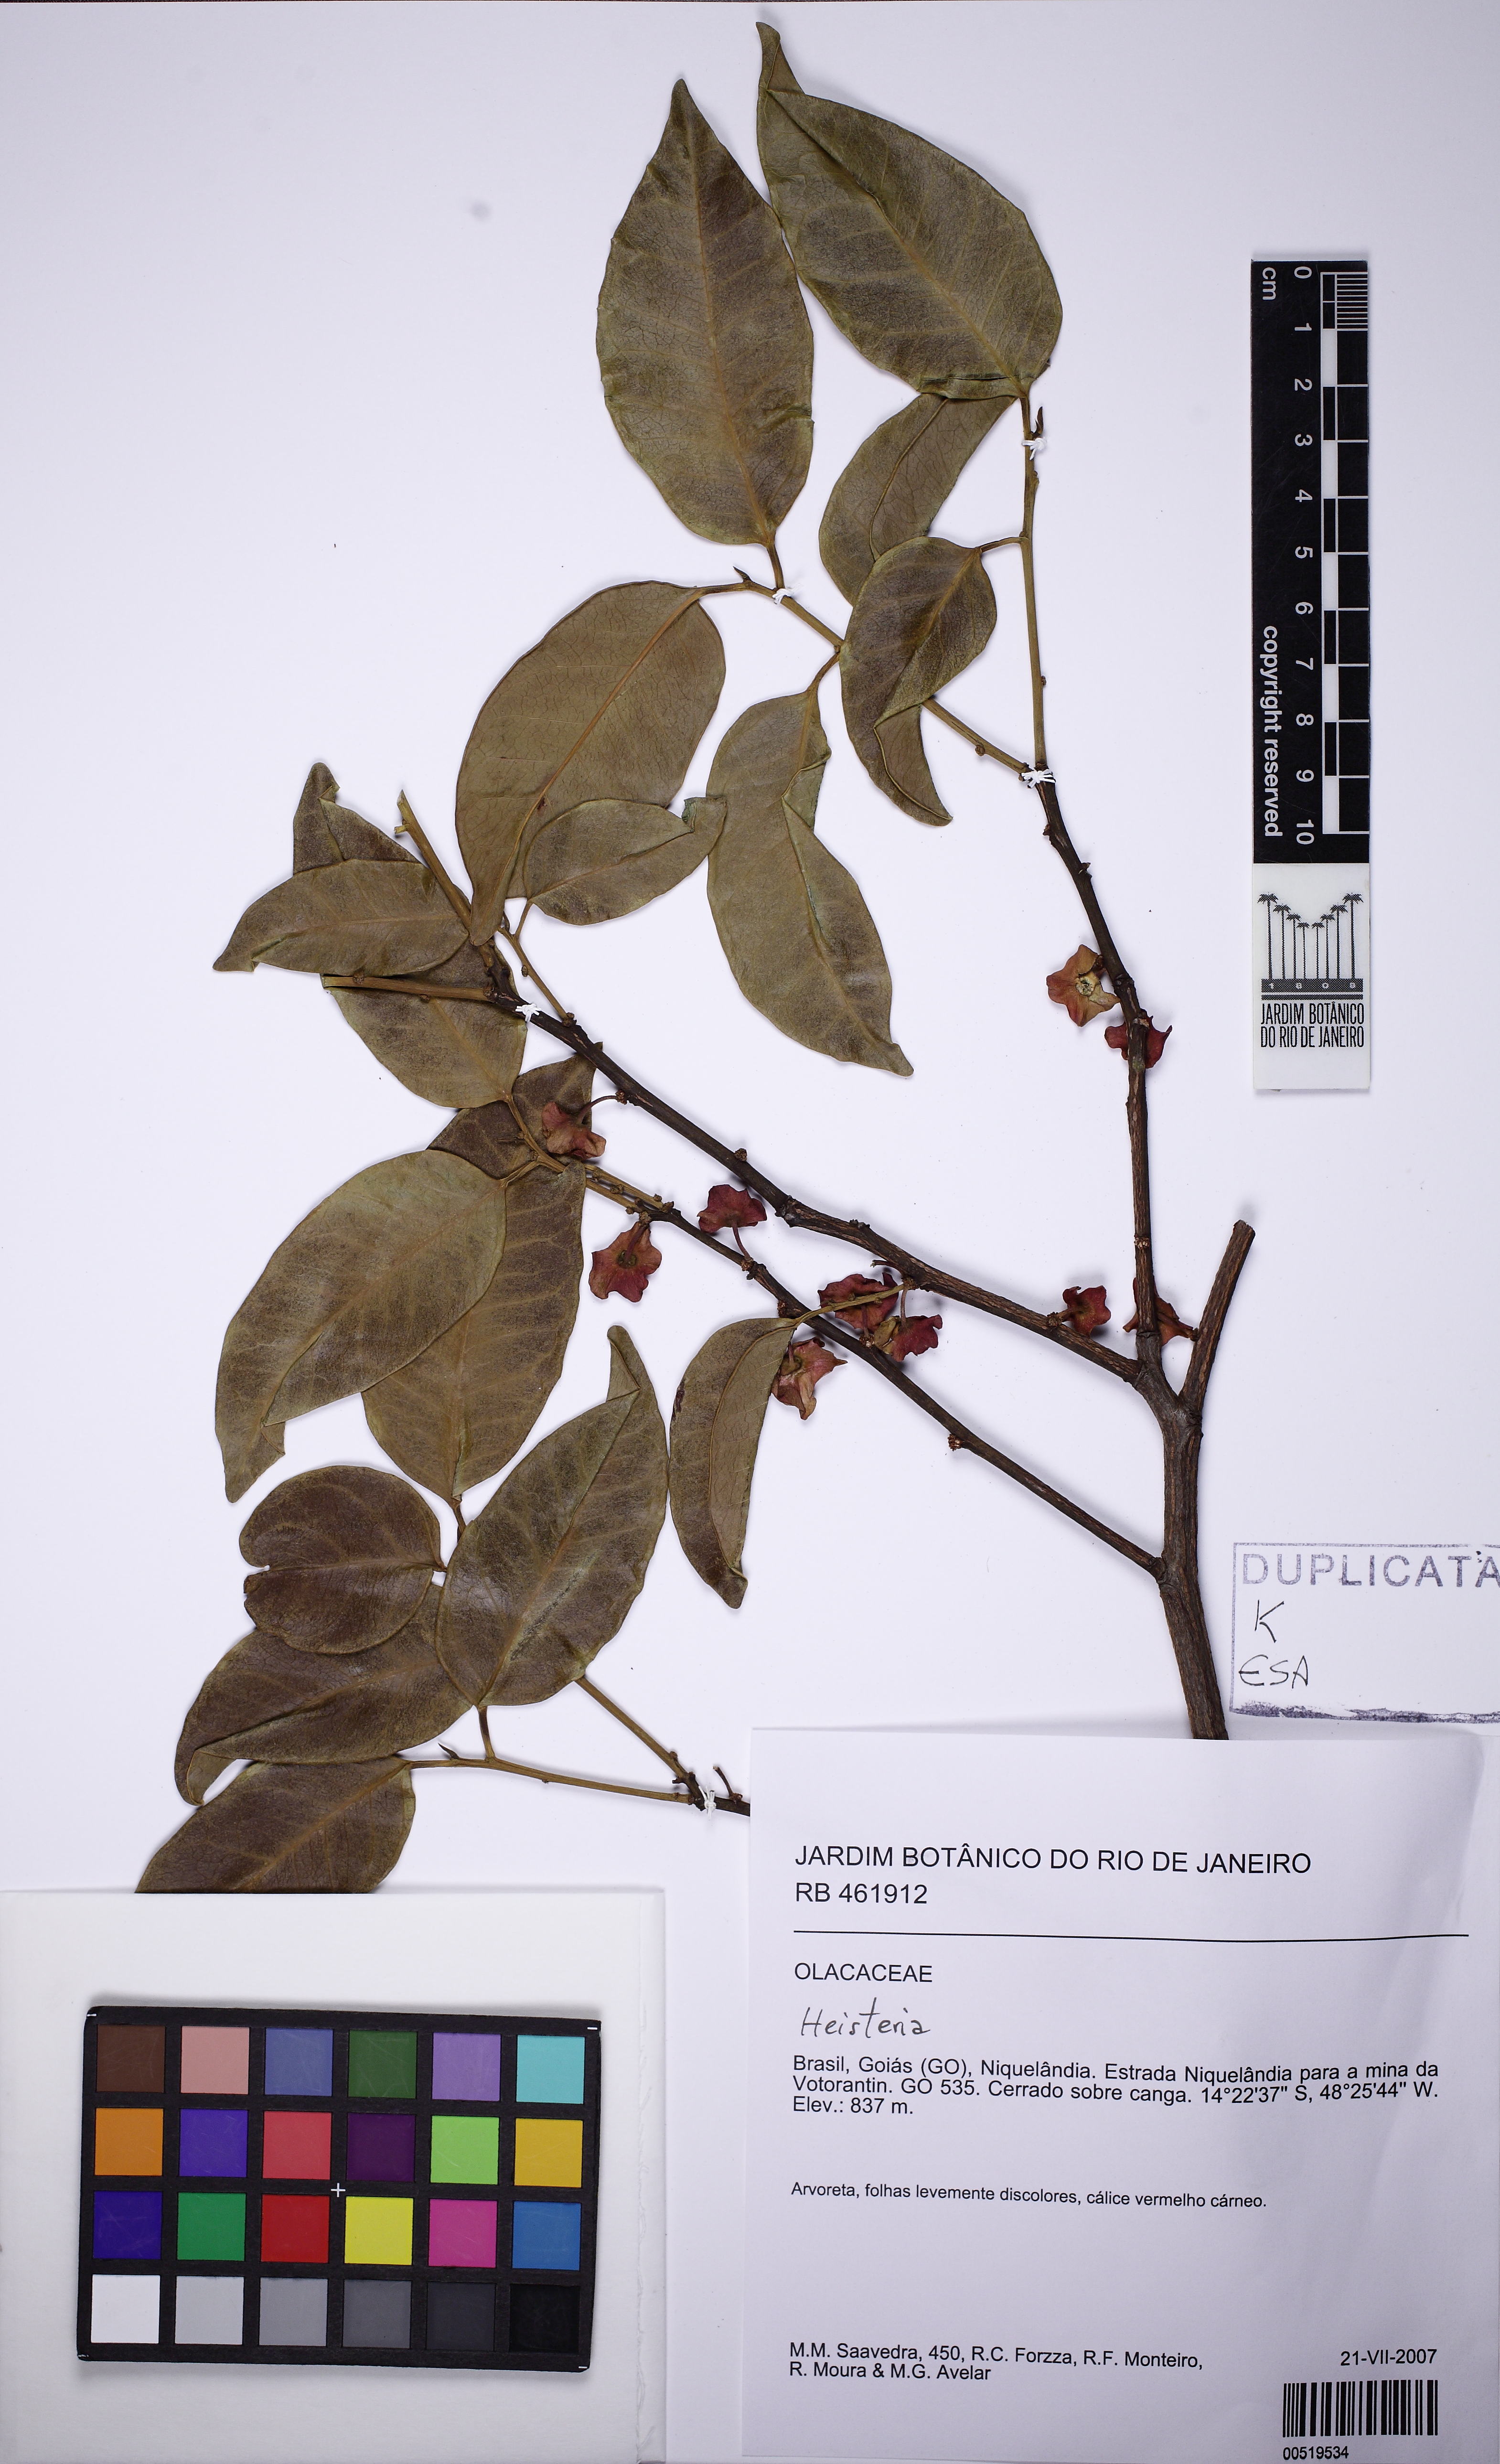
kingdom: Plantae
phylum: Tracheophyta
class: Magnoliopsida
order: Santalales
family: Erythropalaceae
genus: Heisteria
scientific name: Heisteria
